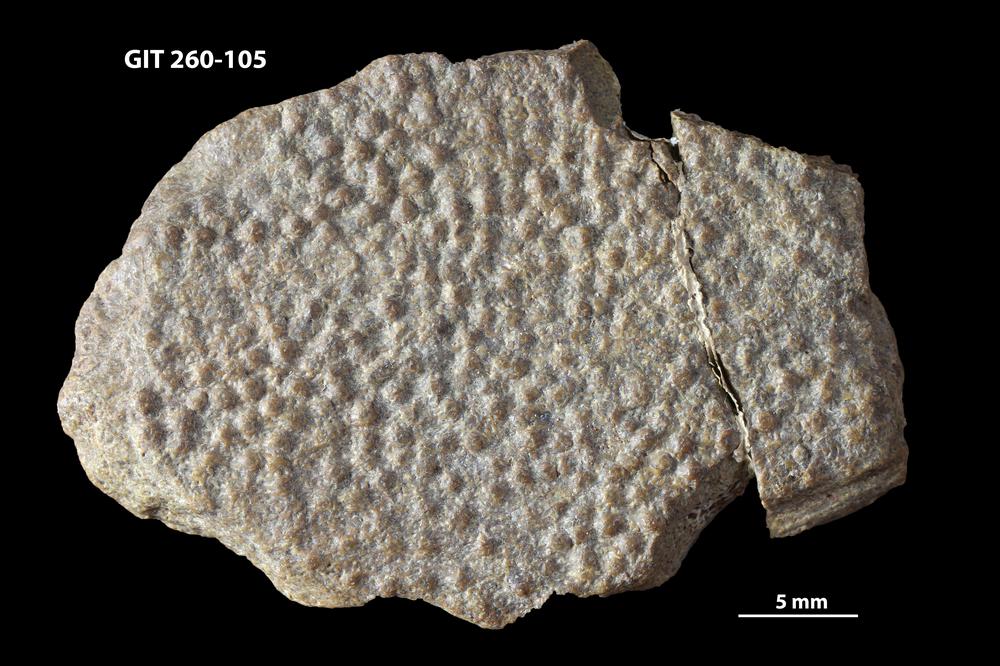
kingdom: Animalia
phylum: Chordata
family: Homostiidae
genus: Homostius
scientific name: Homostius
